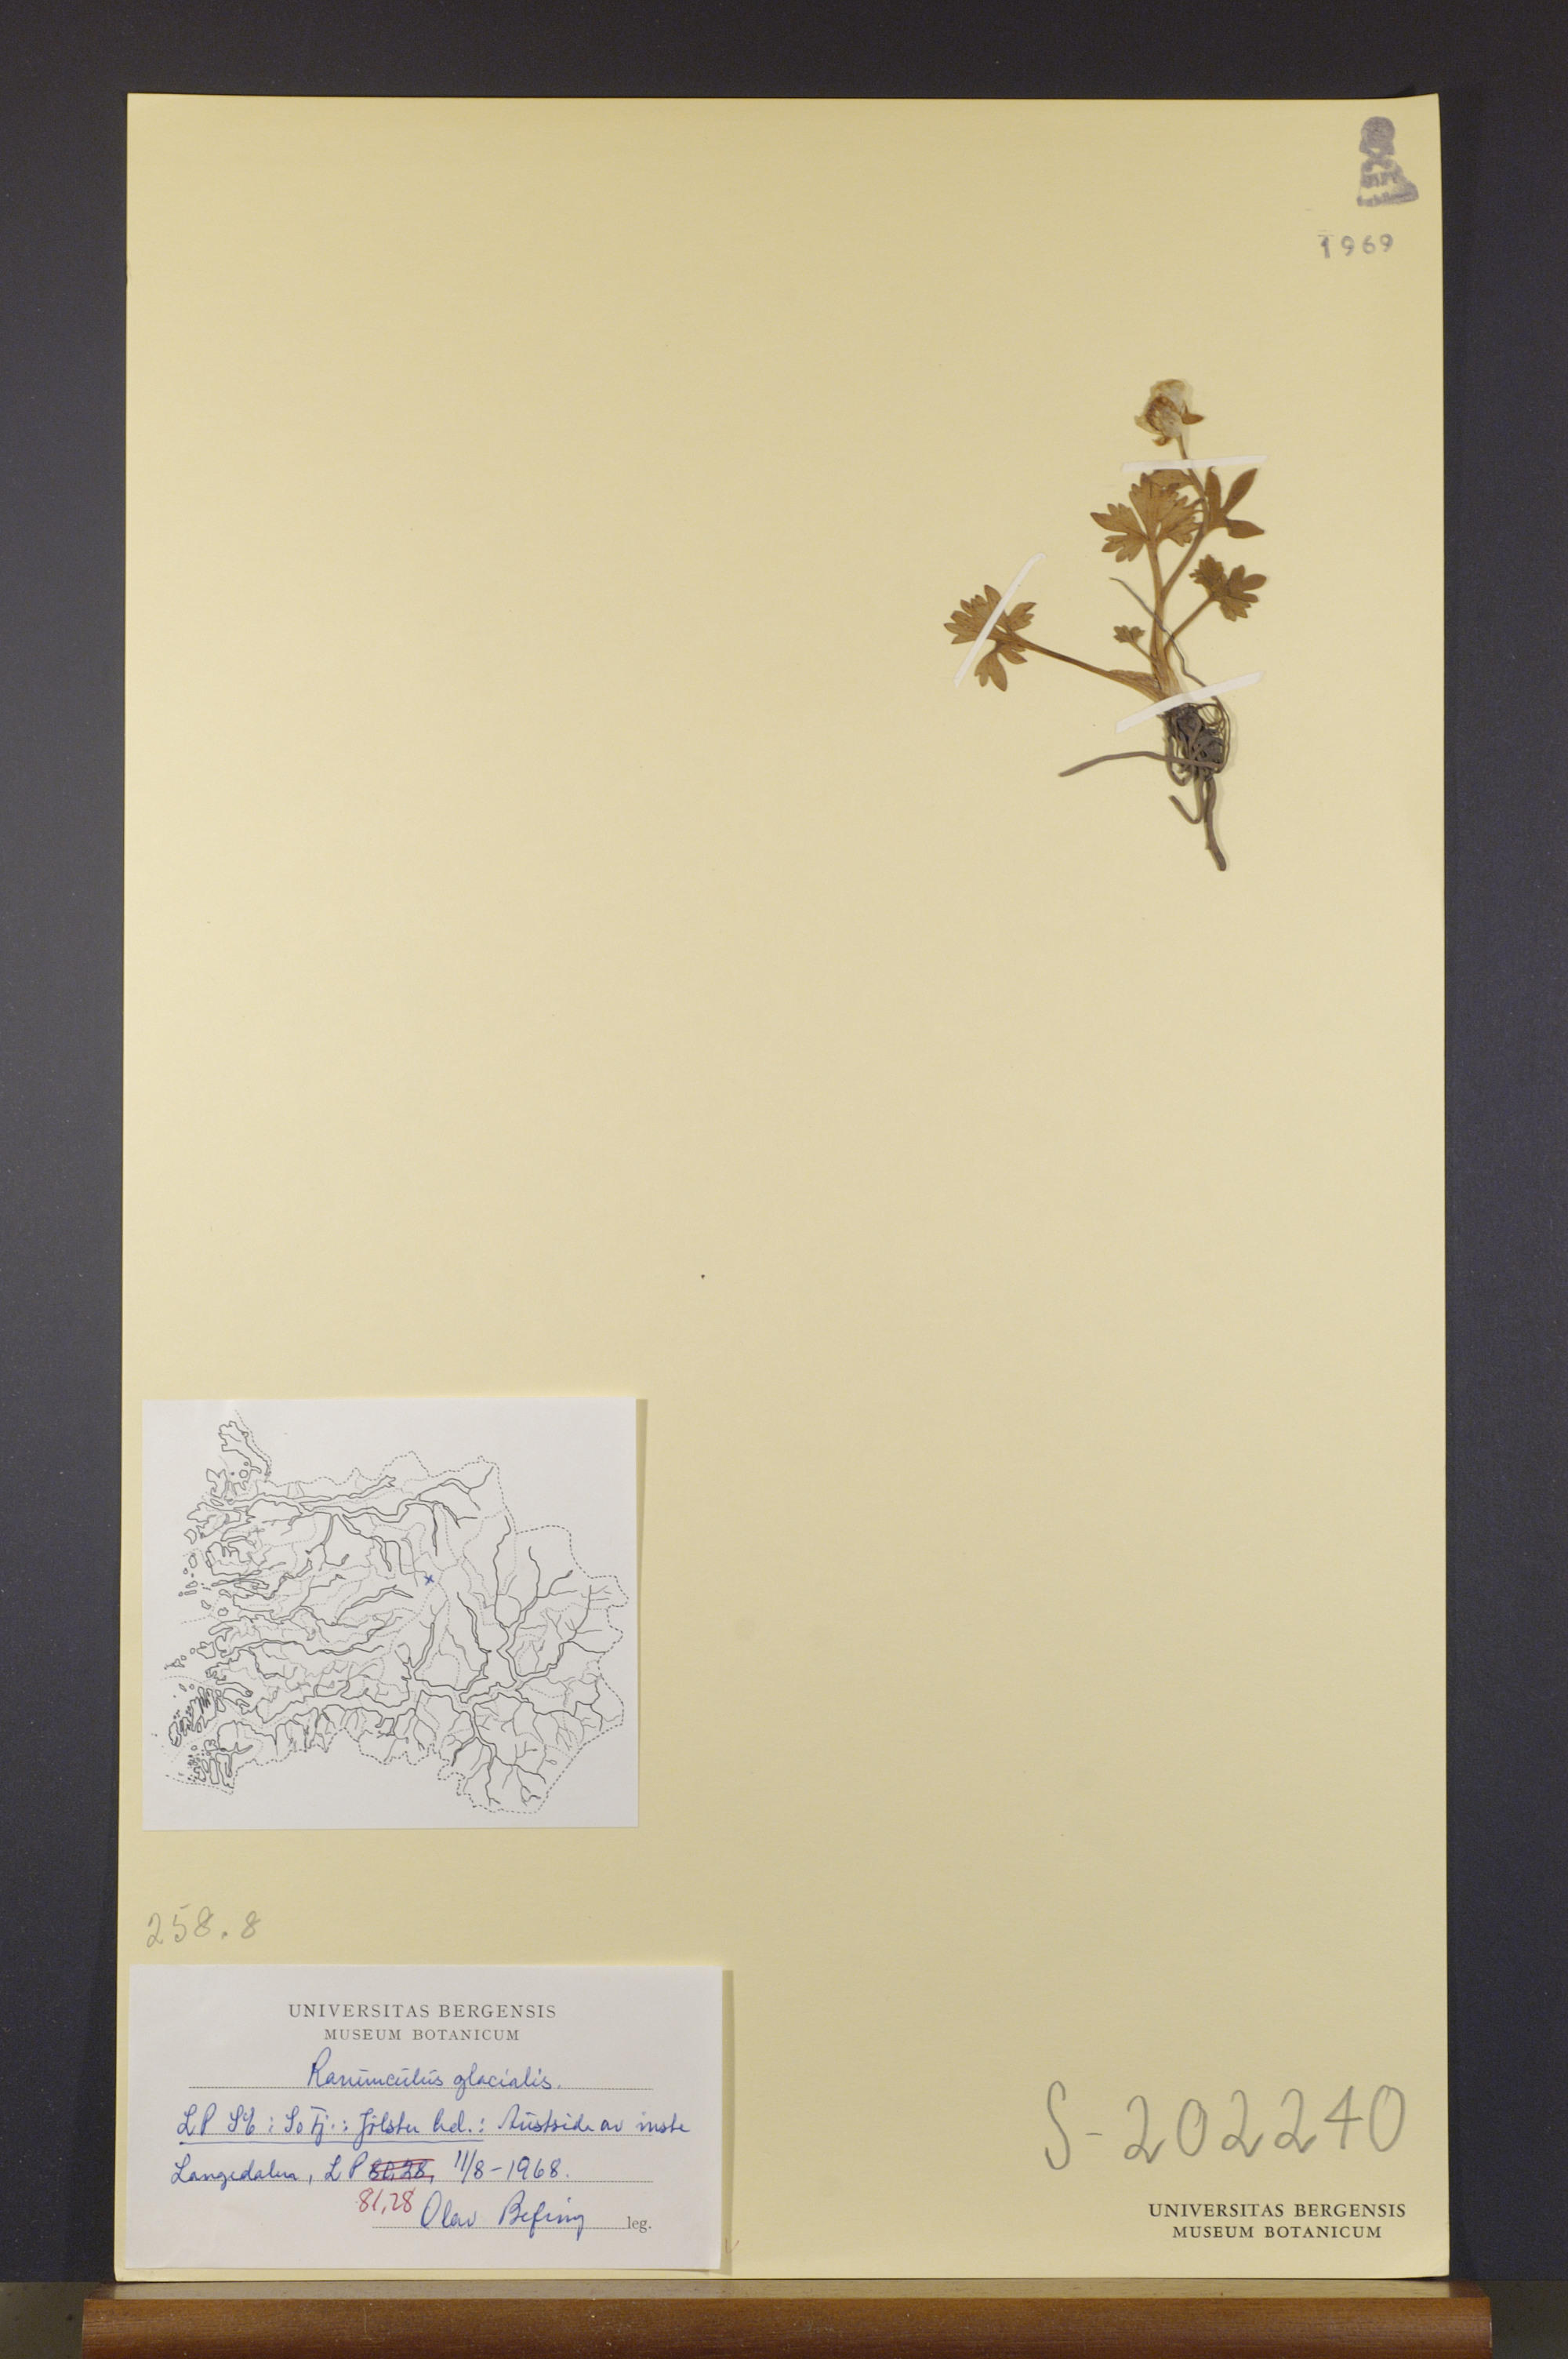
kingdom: Plantae
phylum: Tracheophyta
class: Magnoliopsida
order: Ranunculales
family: Ranunculaceae
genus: Ranunculus
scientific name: Ranunculus glacialis
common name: Glacier buttercup
